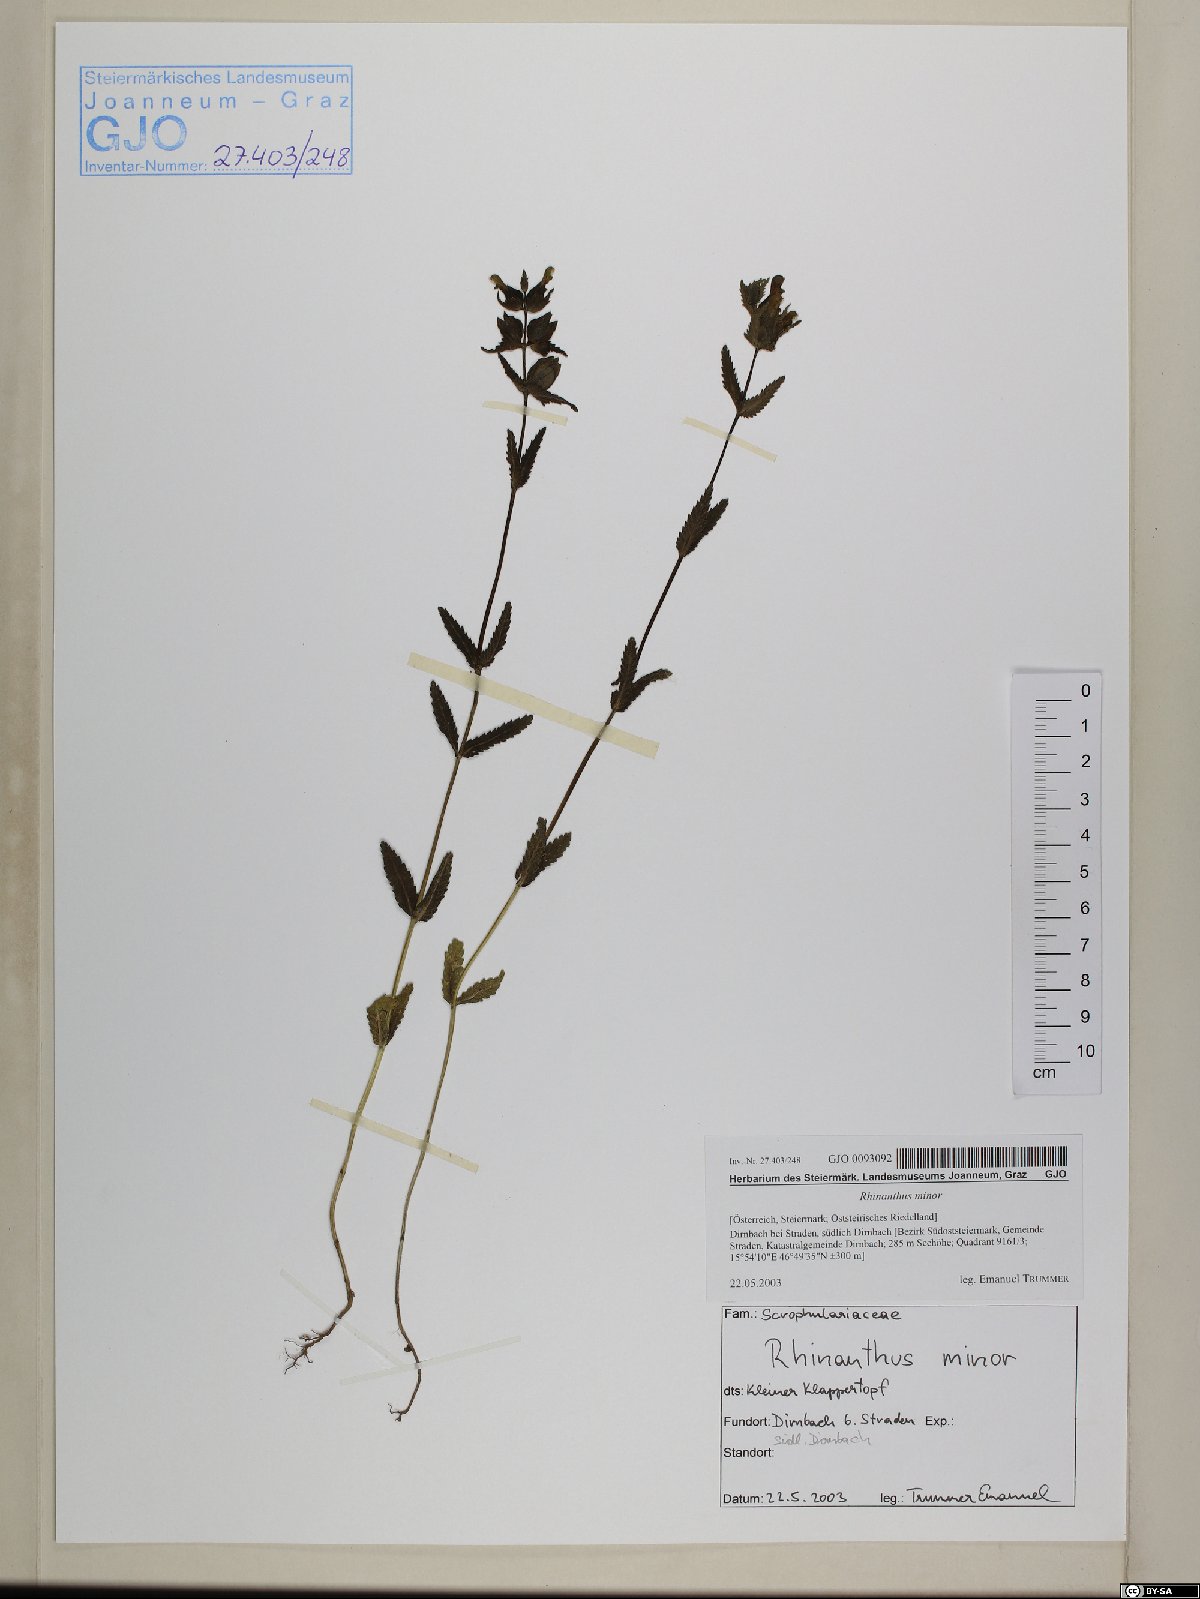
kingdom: Plantae
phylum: Tracheophyta
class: Magnoliopsida
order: Lamiales
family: Orobanchaceae
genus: Rhinanthus
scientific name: Rhinanthus minor
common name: Yellow-rattle
